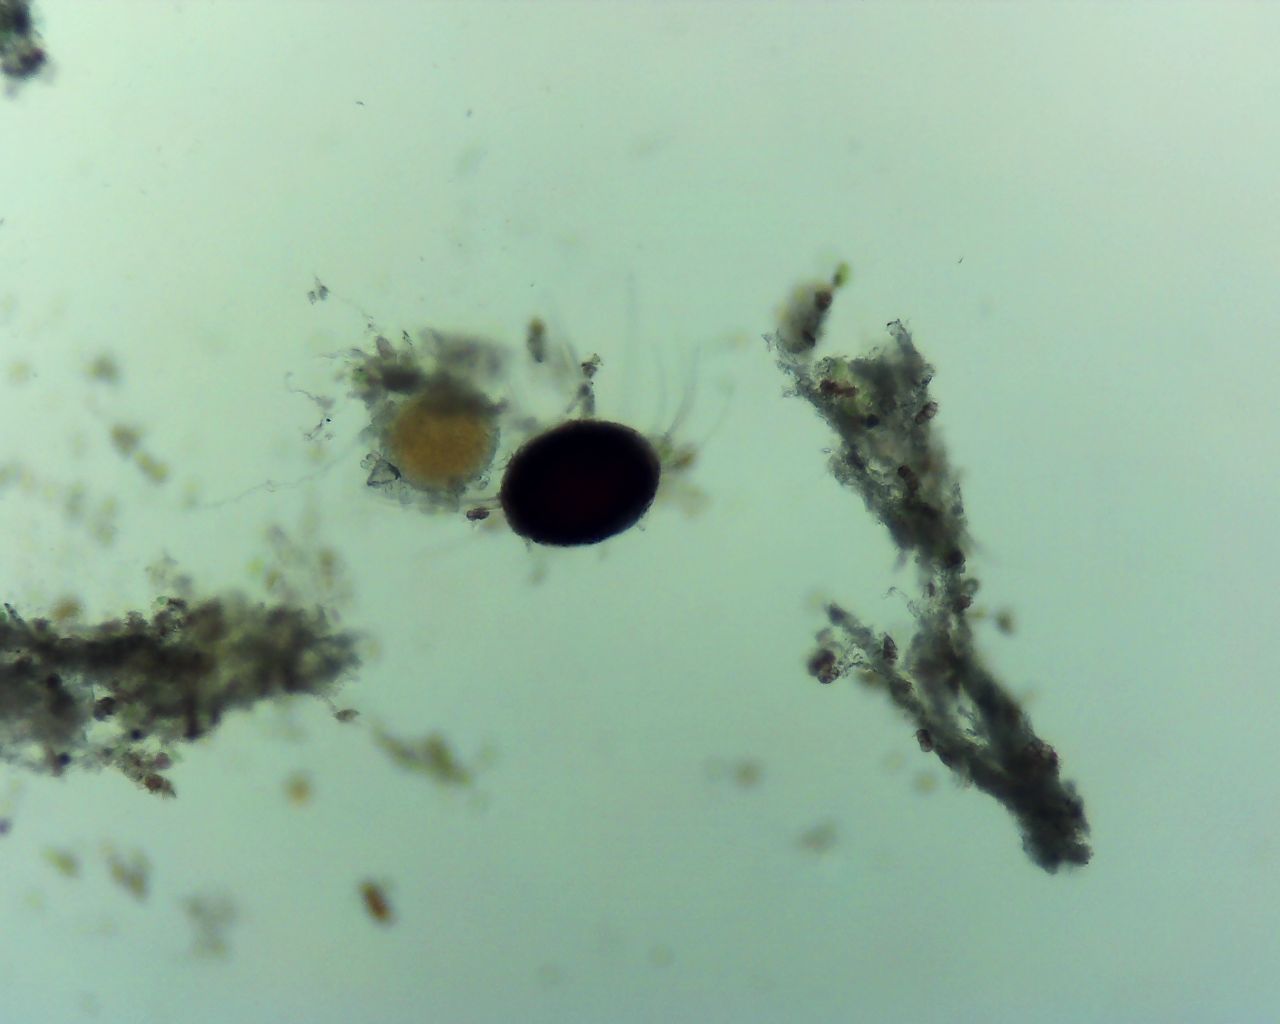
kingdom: Fungi
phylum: Ascomycota
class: Leotiomycetes
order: Helotiales
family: Erysiphaceae
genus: Erysiphe
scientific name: Erysiphe prunastri
